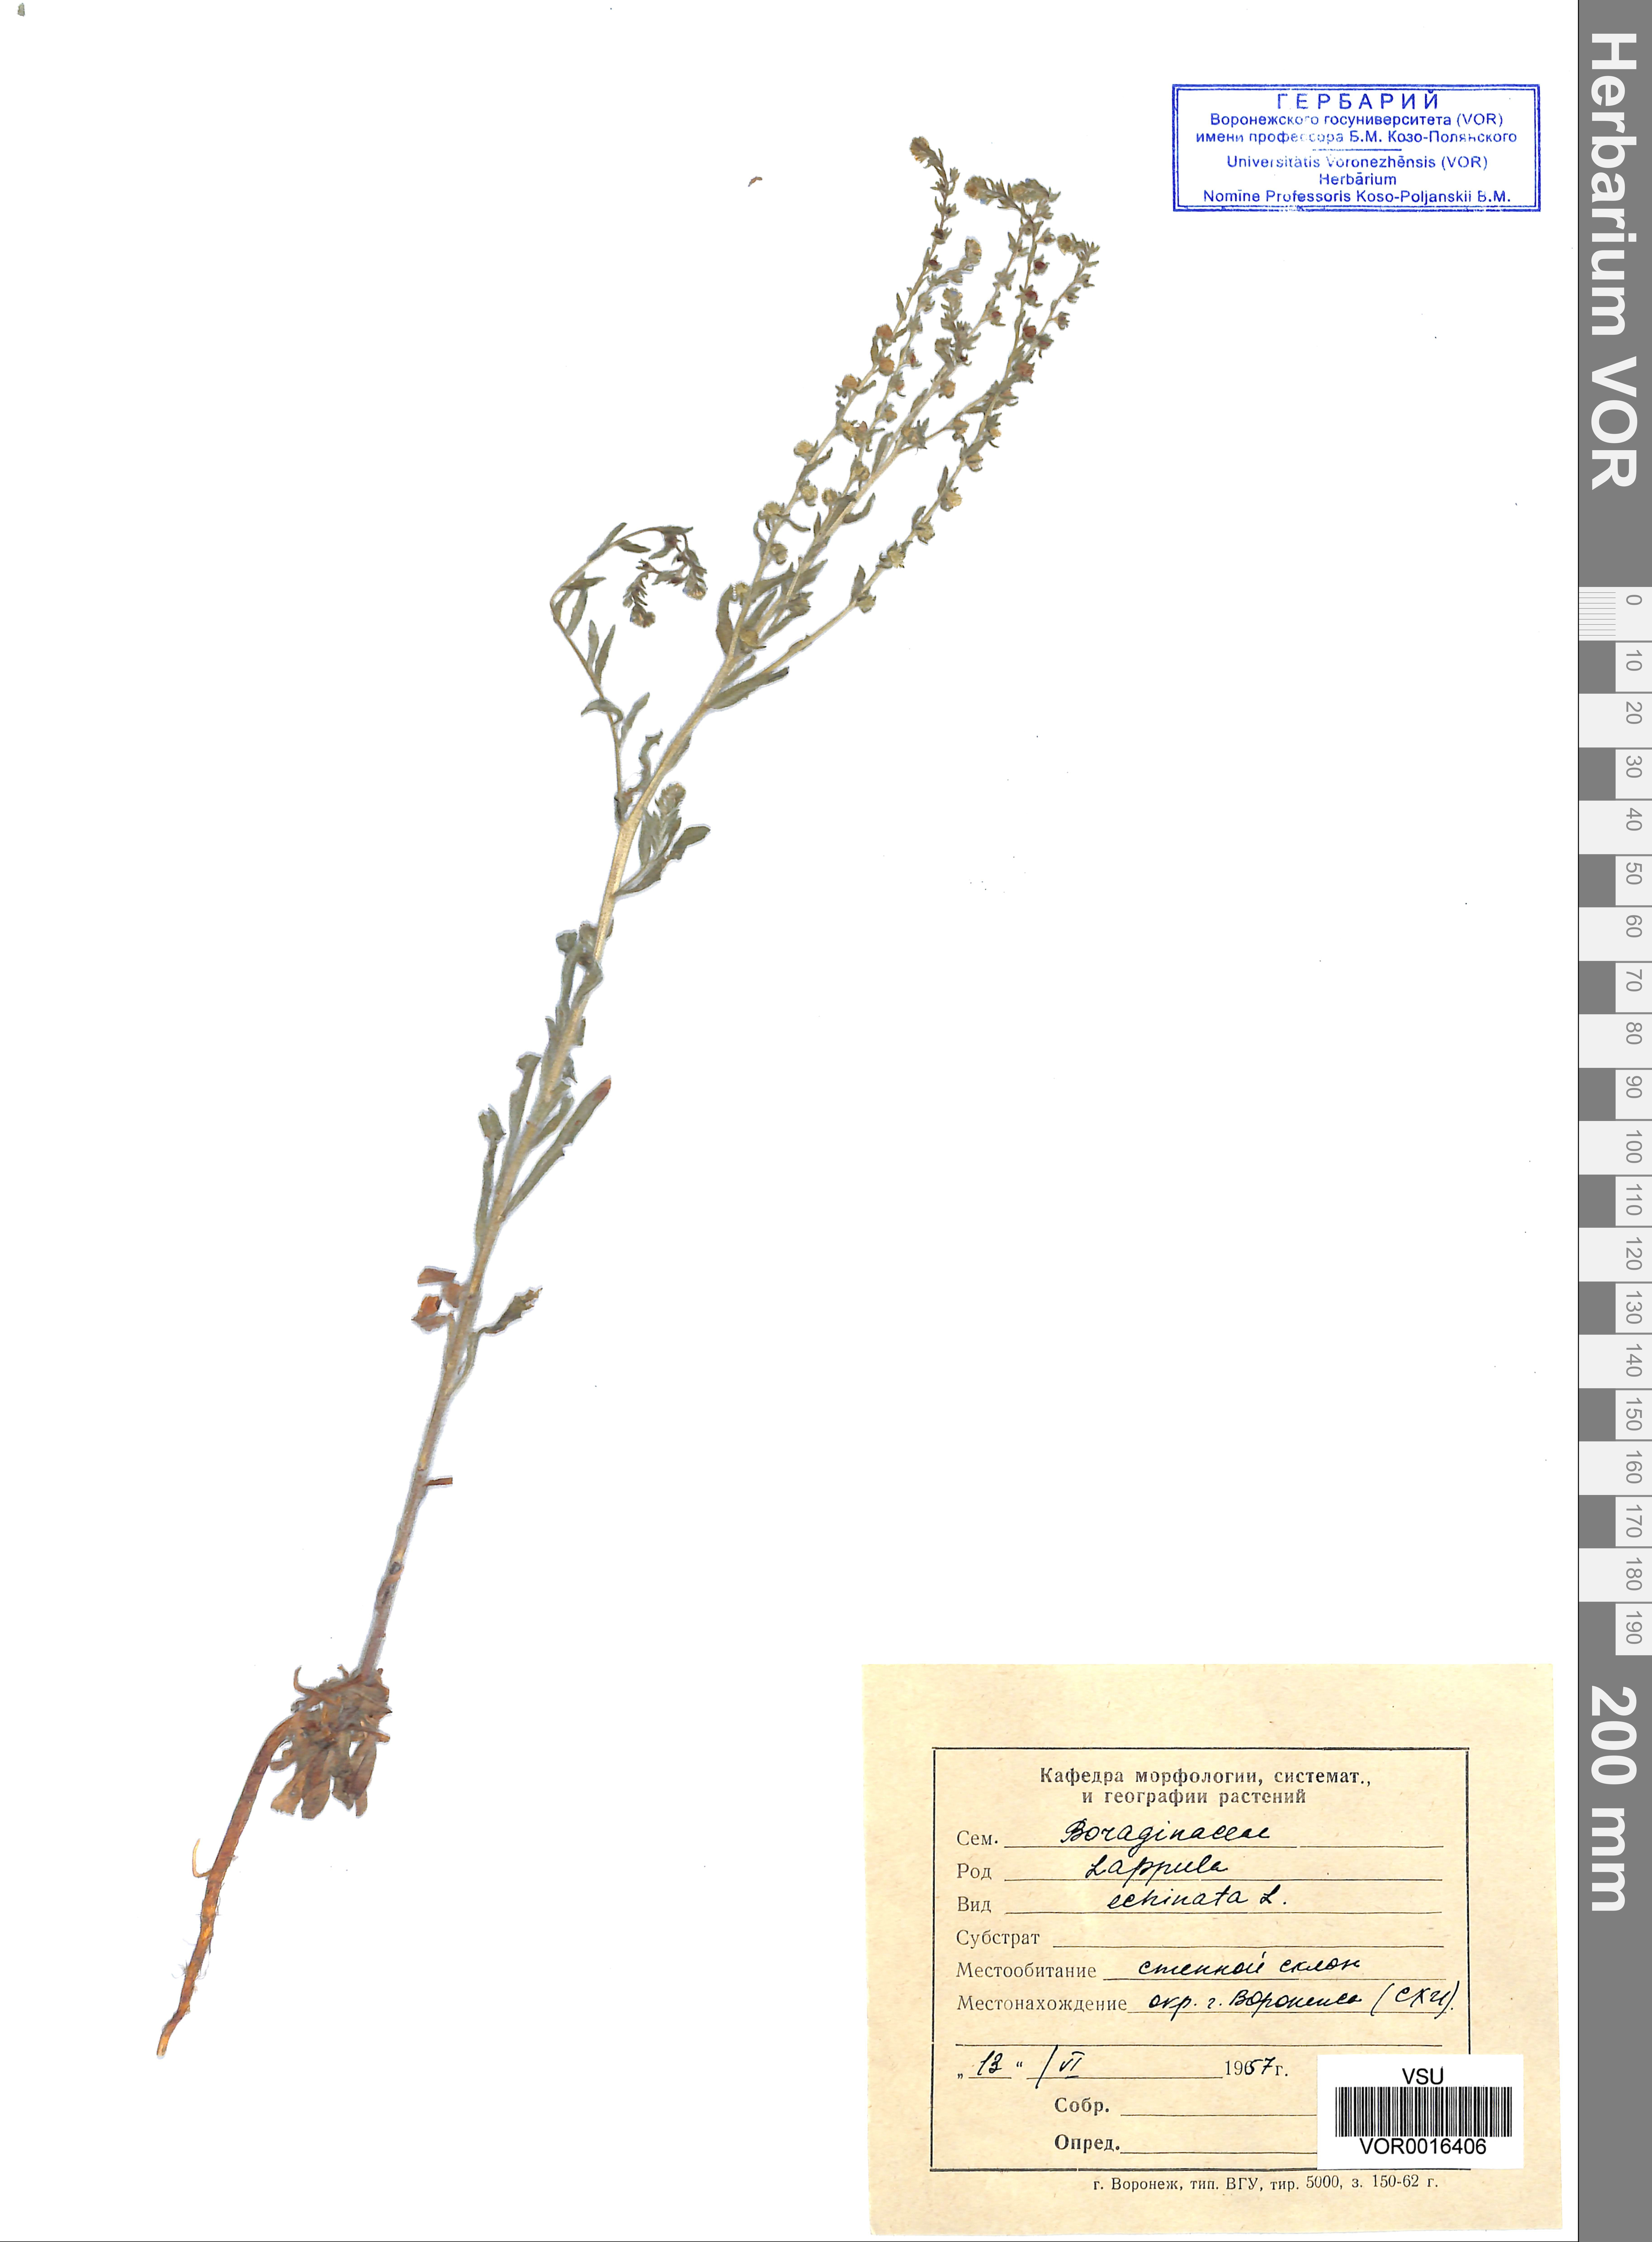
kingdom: Plantae
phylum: Tracheophyta
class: Magnoliopsida
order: Boraginales
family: Boraginaceae
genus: Lappula
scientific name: Lappula squarrosa
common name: European stickseed
